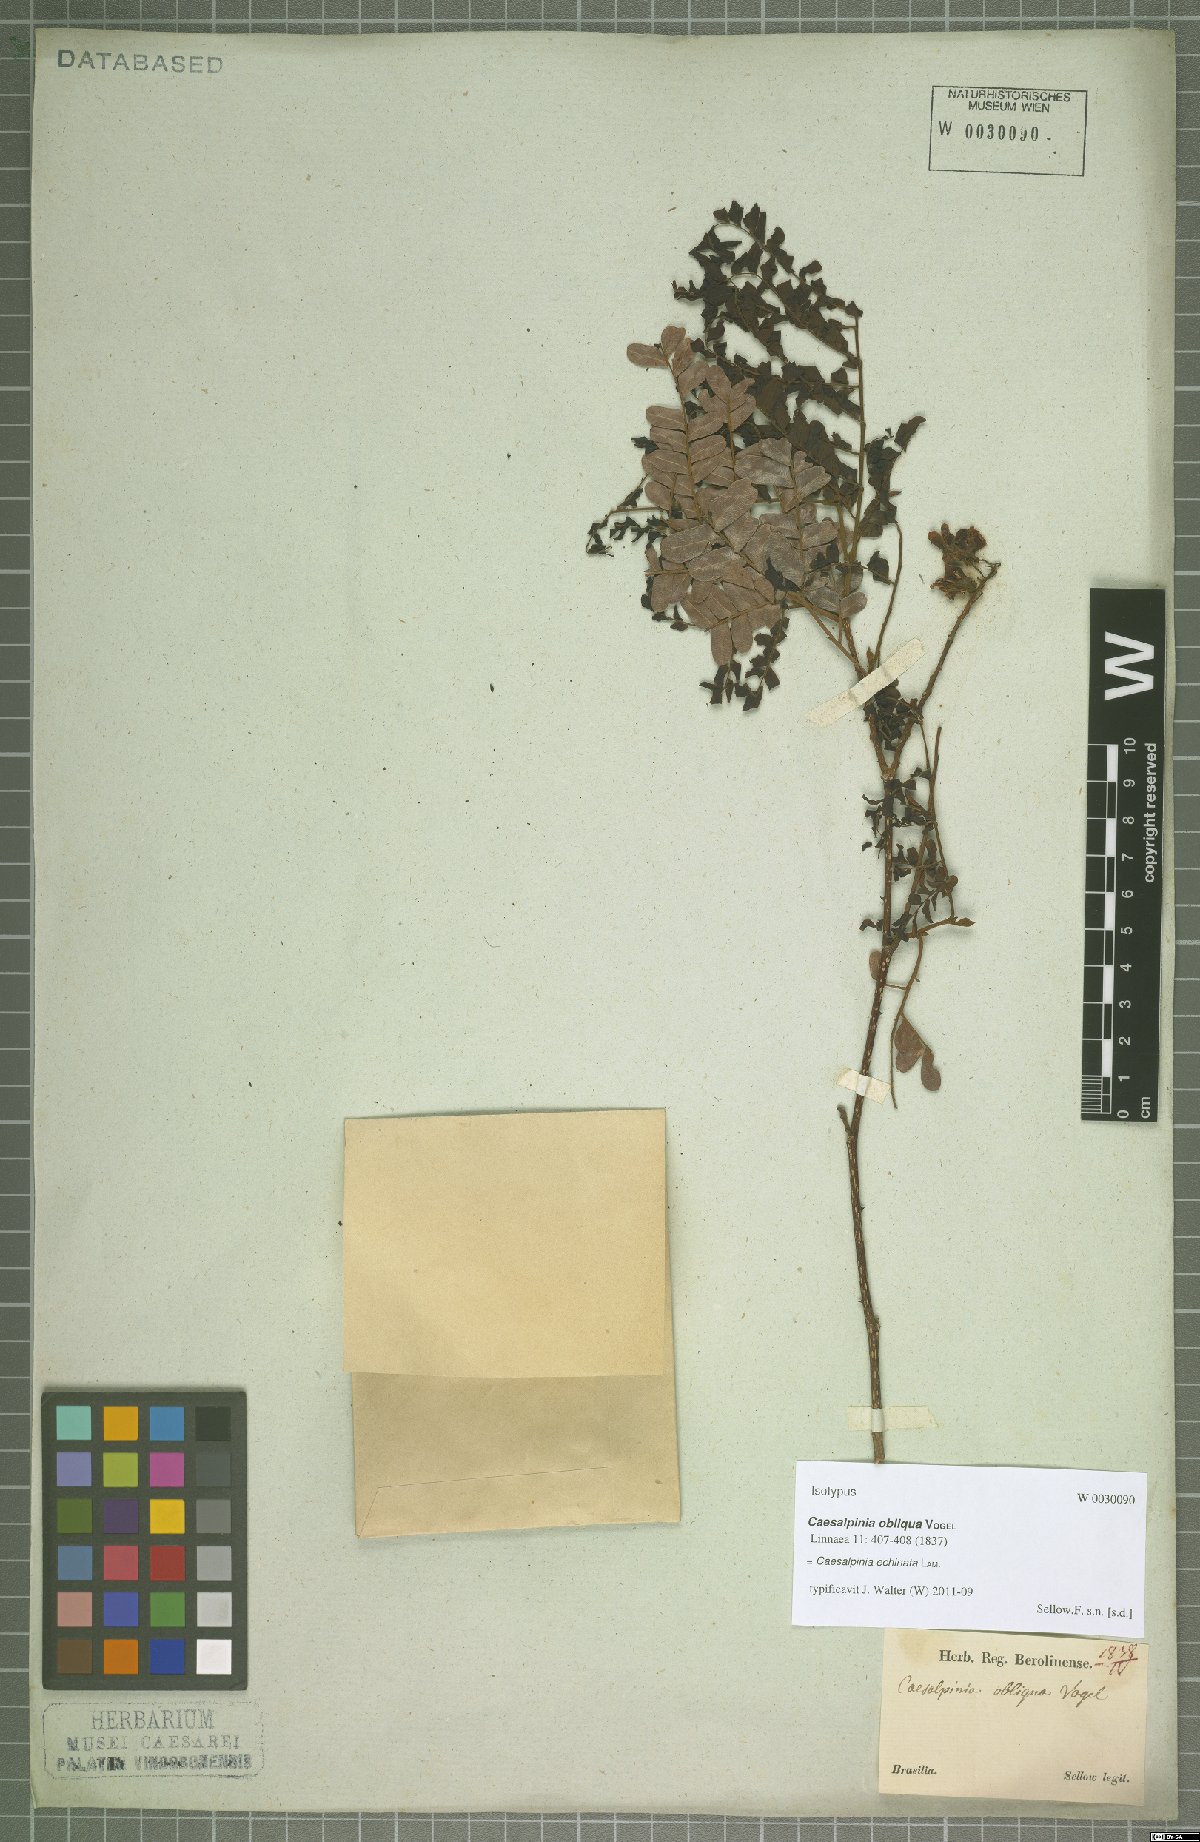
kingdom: Plantae
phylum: Tracheophyta
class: Magnoliopsida
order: Fabales
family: Fabaceae
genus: Paubrasilia
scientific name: Paubrasilia echinata
